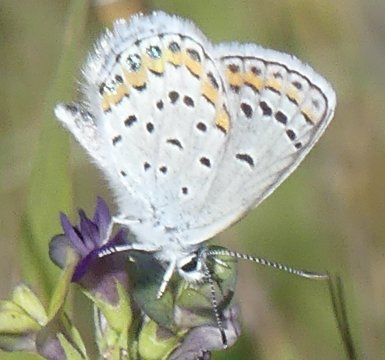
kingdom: Animalia
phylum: Arthropoda
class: Insecta
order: Lepidoptera
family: Lycaenidae
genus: Lycaeides
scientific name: Lycaeides melissa
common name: Melissa Blue
